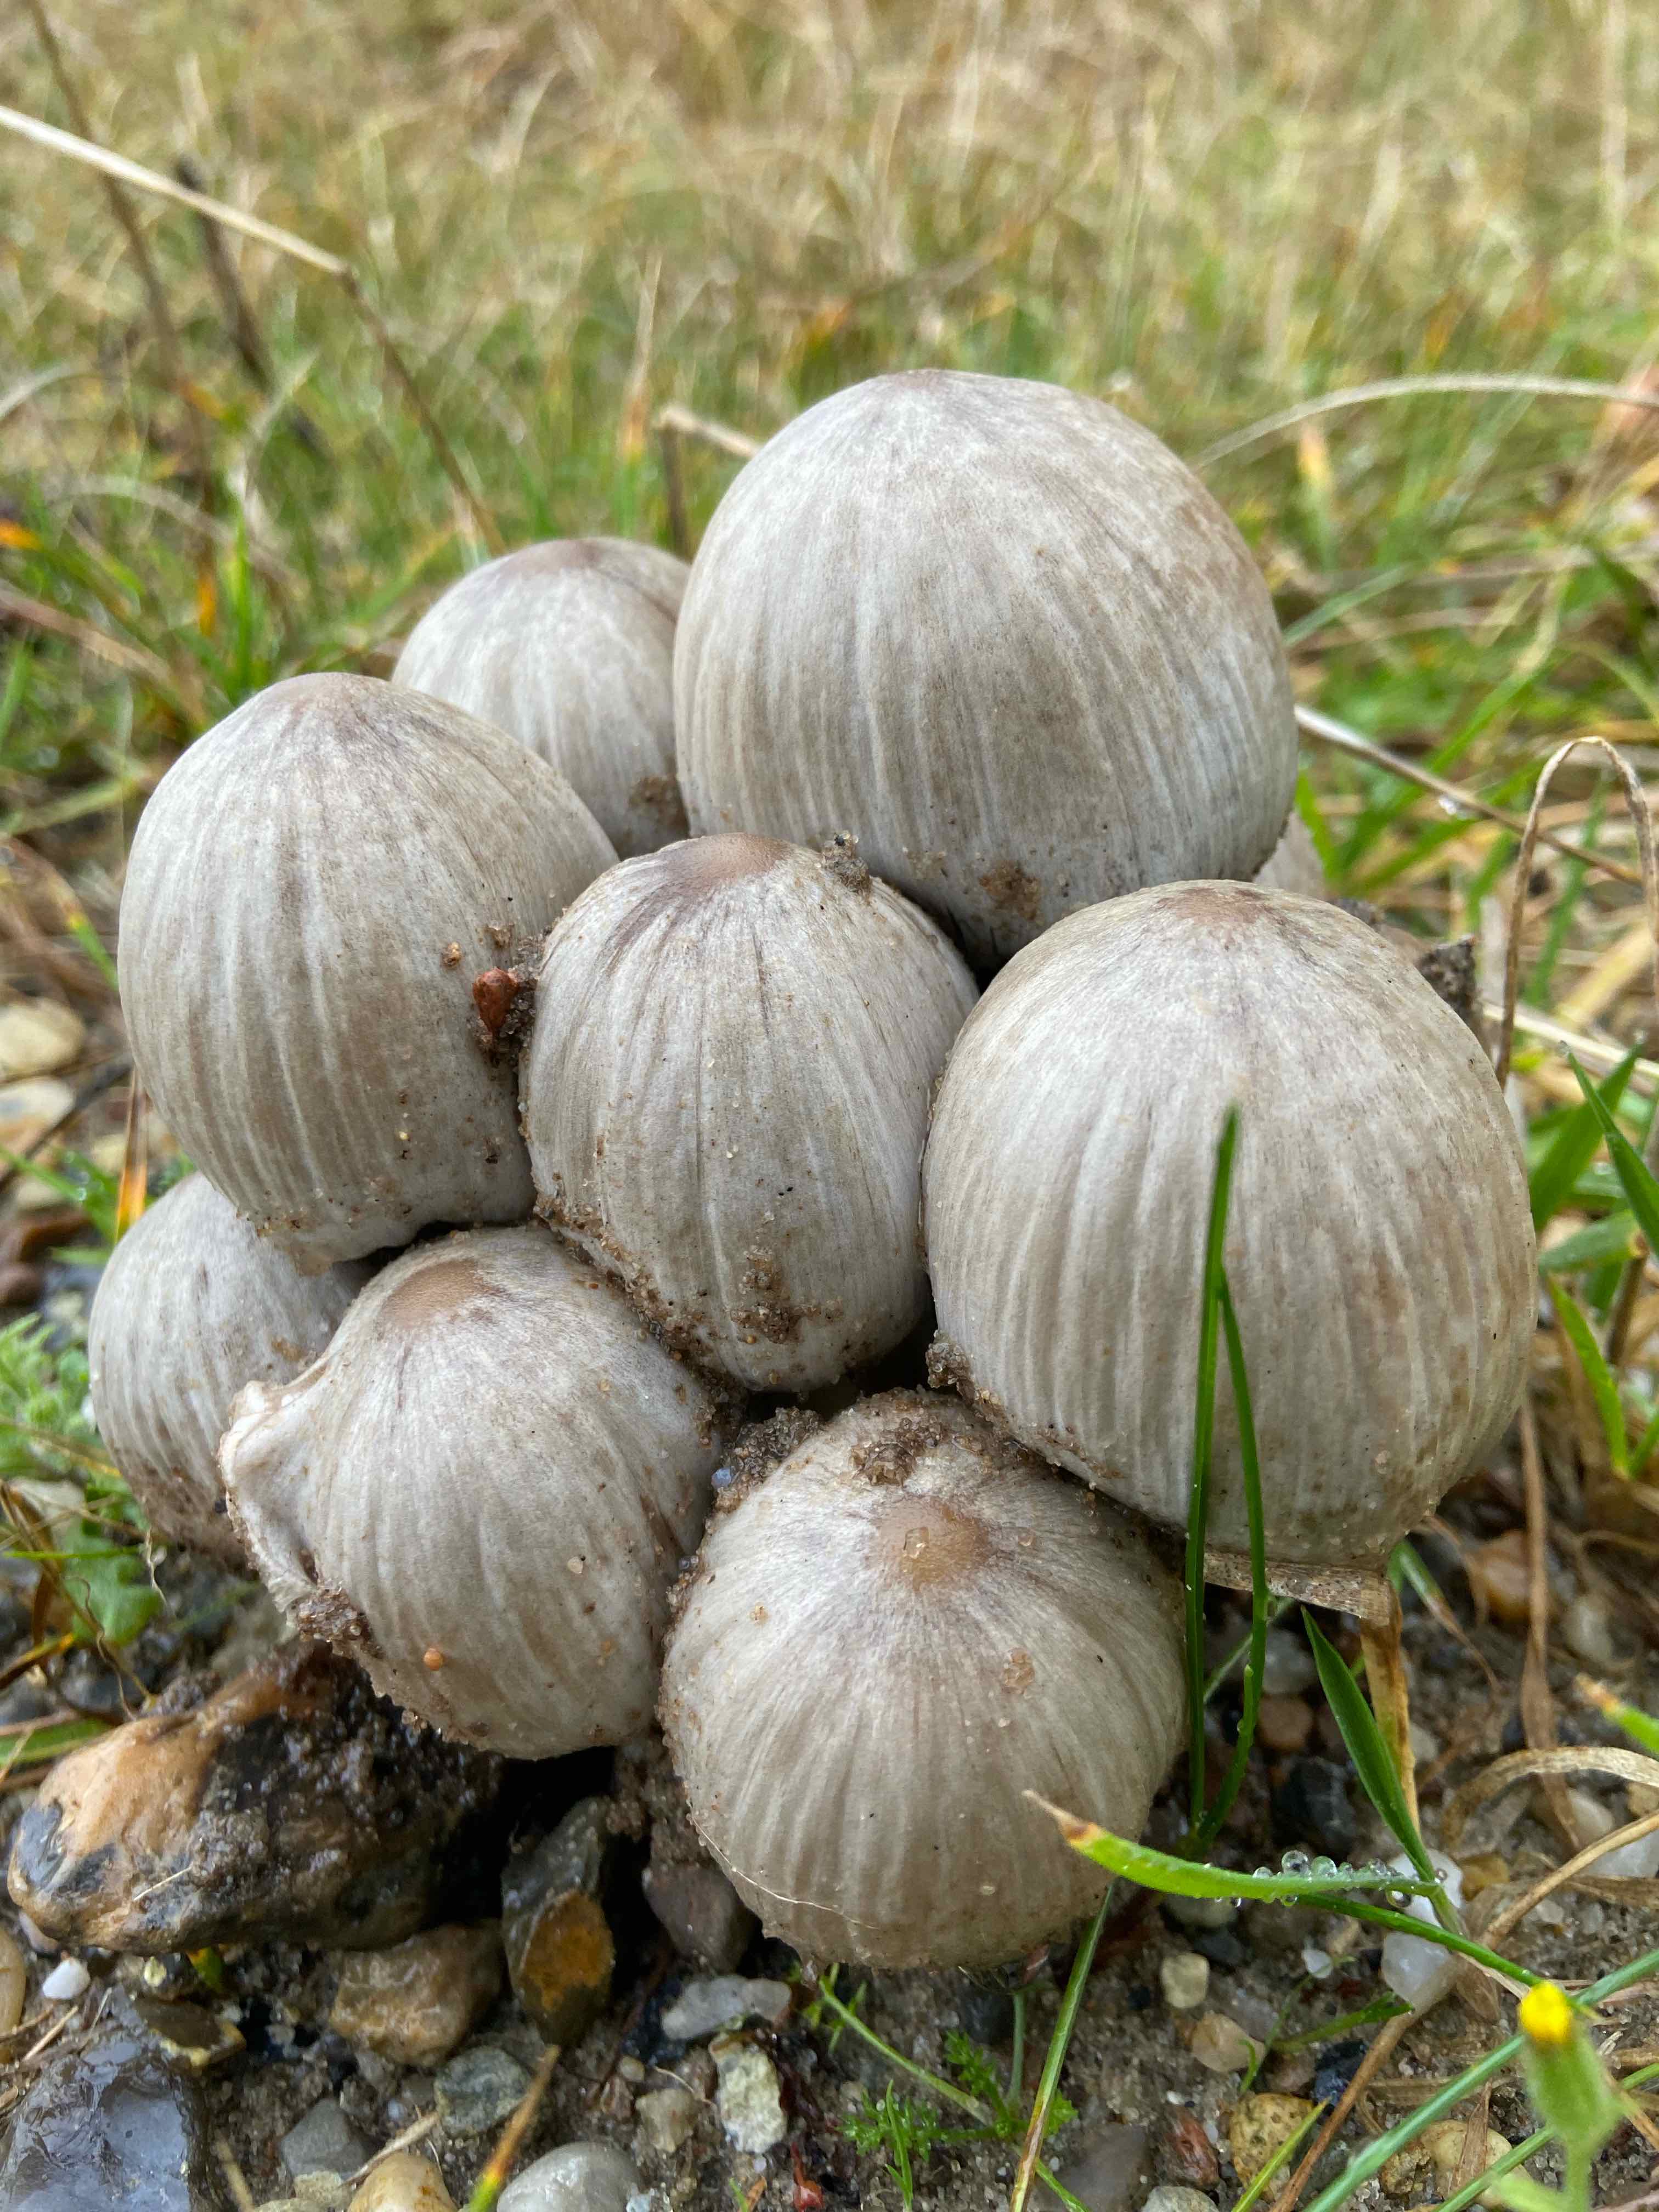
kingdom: Fungi
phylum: Basidiomycota
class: Agaricomycetes
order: Agaricales
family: Psathyrellaceae
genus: Coprinopsis
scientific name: Coprinopsis atramentaria
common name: almindelig blækhat
